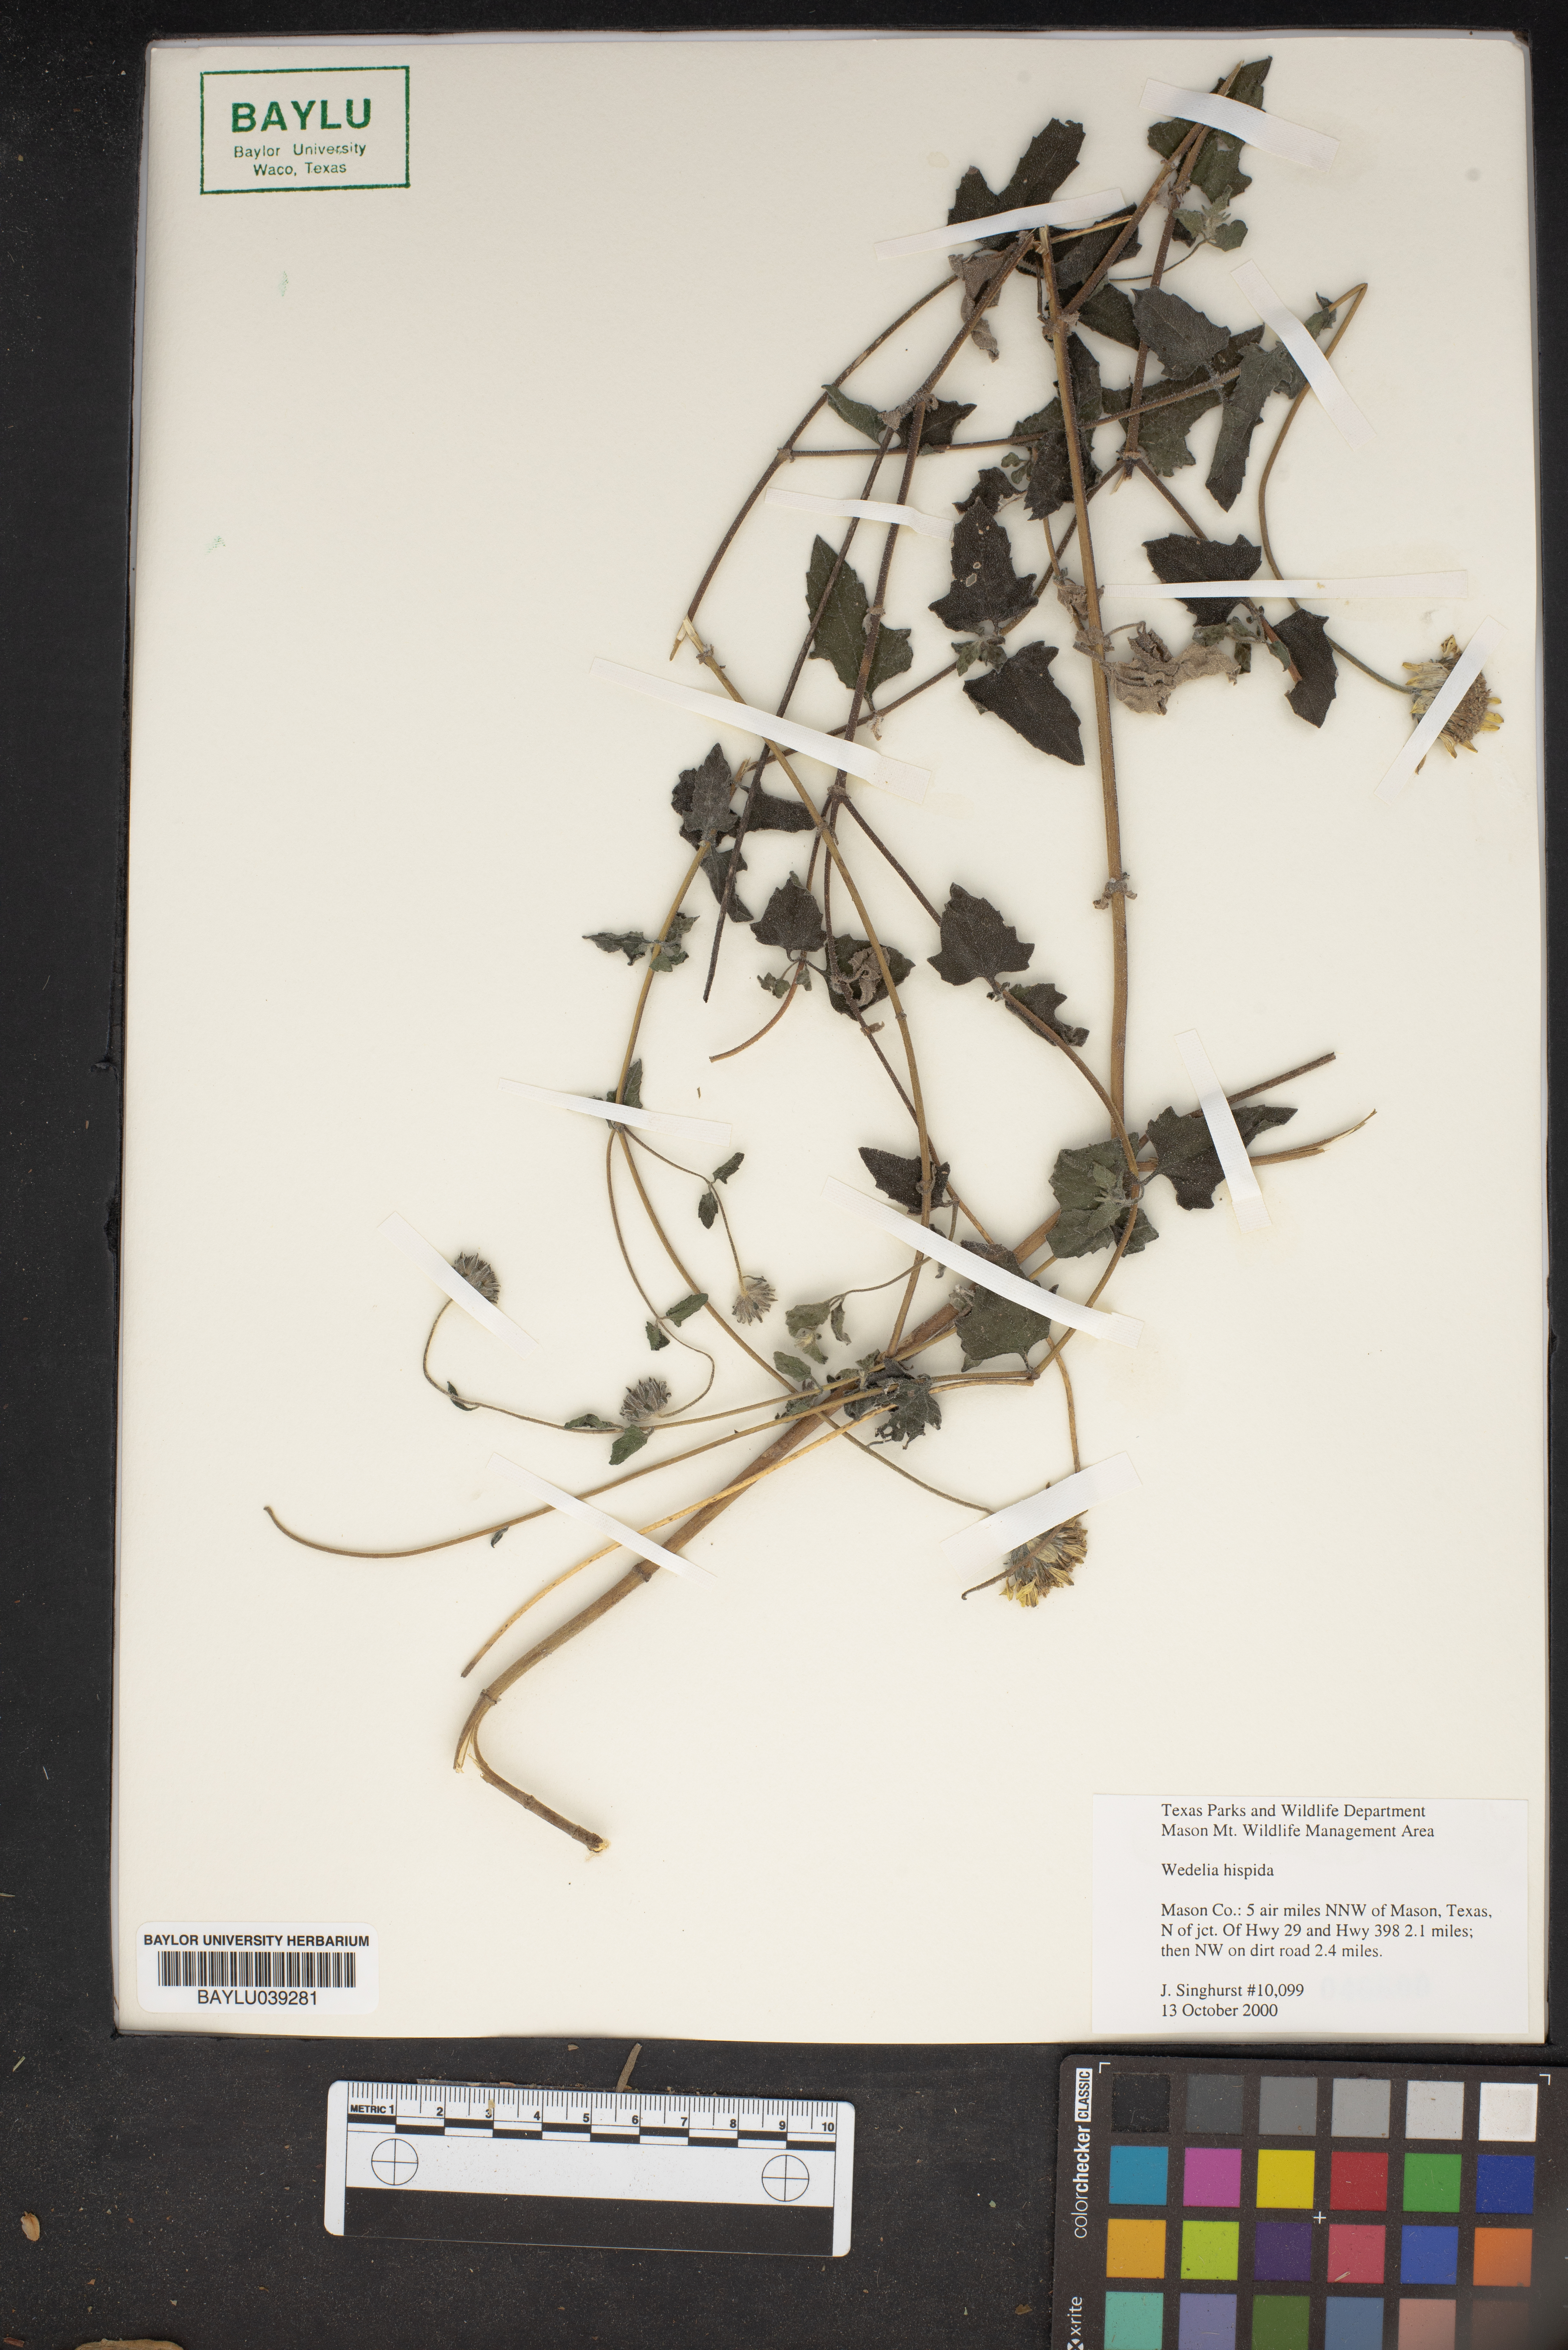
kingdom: Plantae
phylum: Tracheophyta
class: Magnoliopsida
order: Asterales
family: Asteraceae
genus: Wedelia
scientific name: Wedelia acapulcensis
